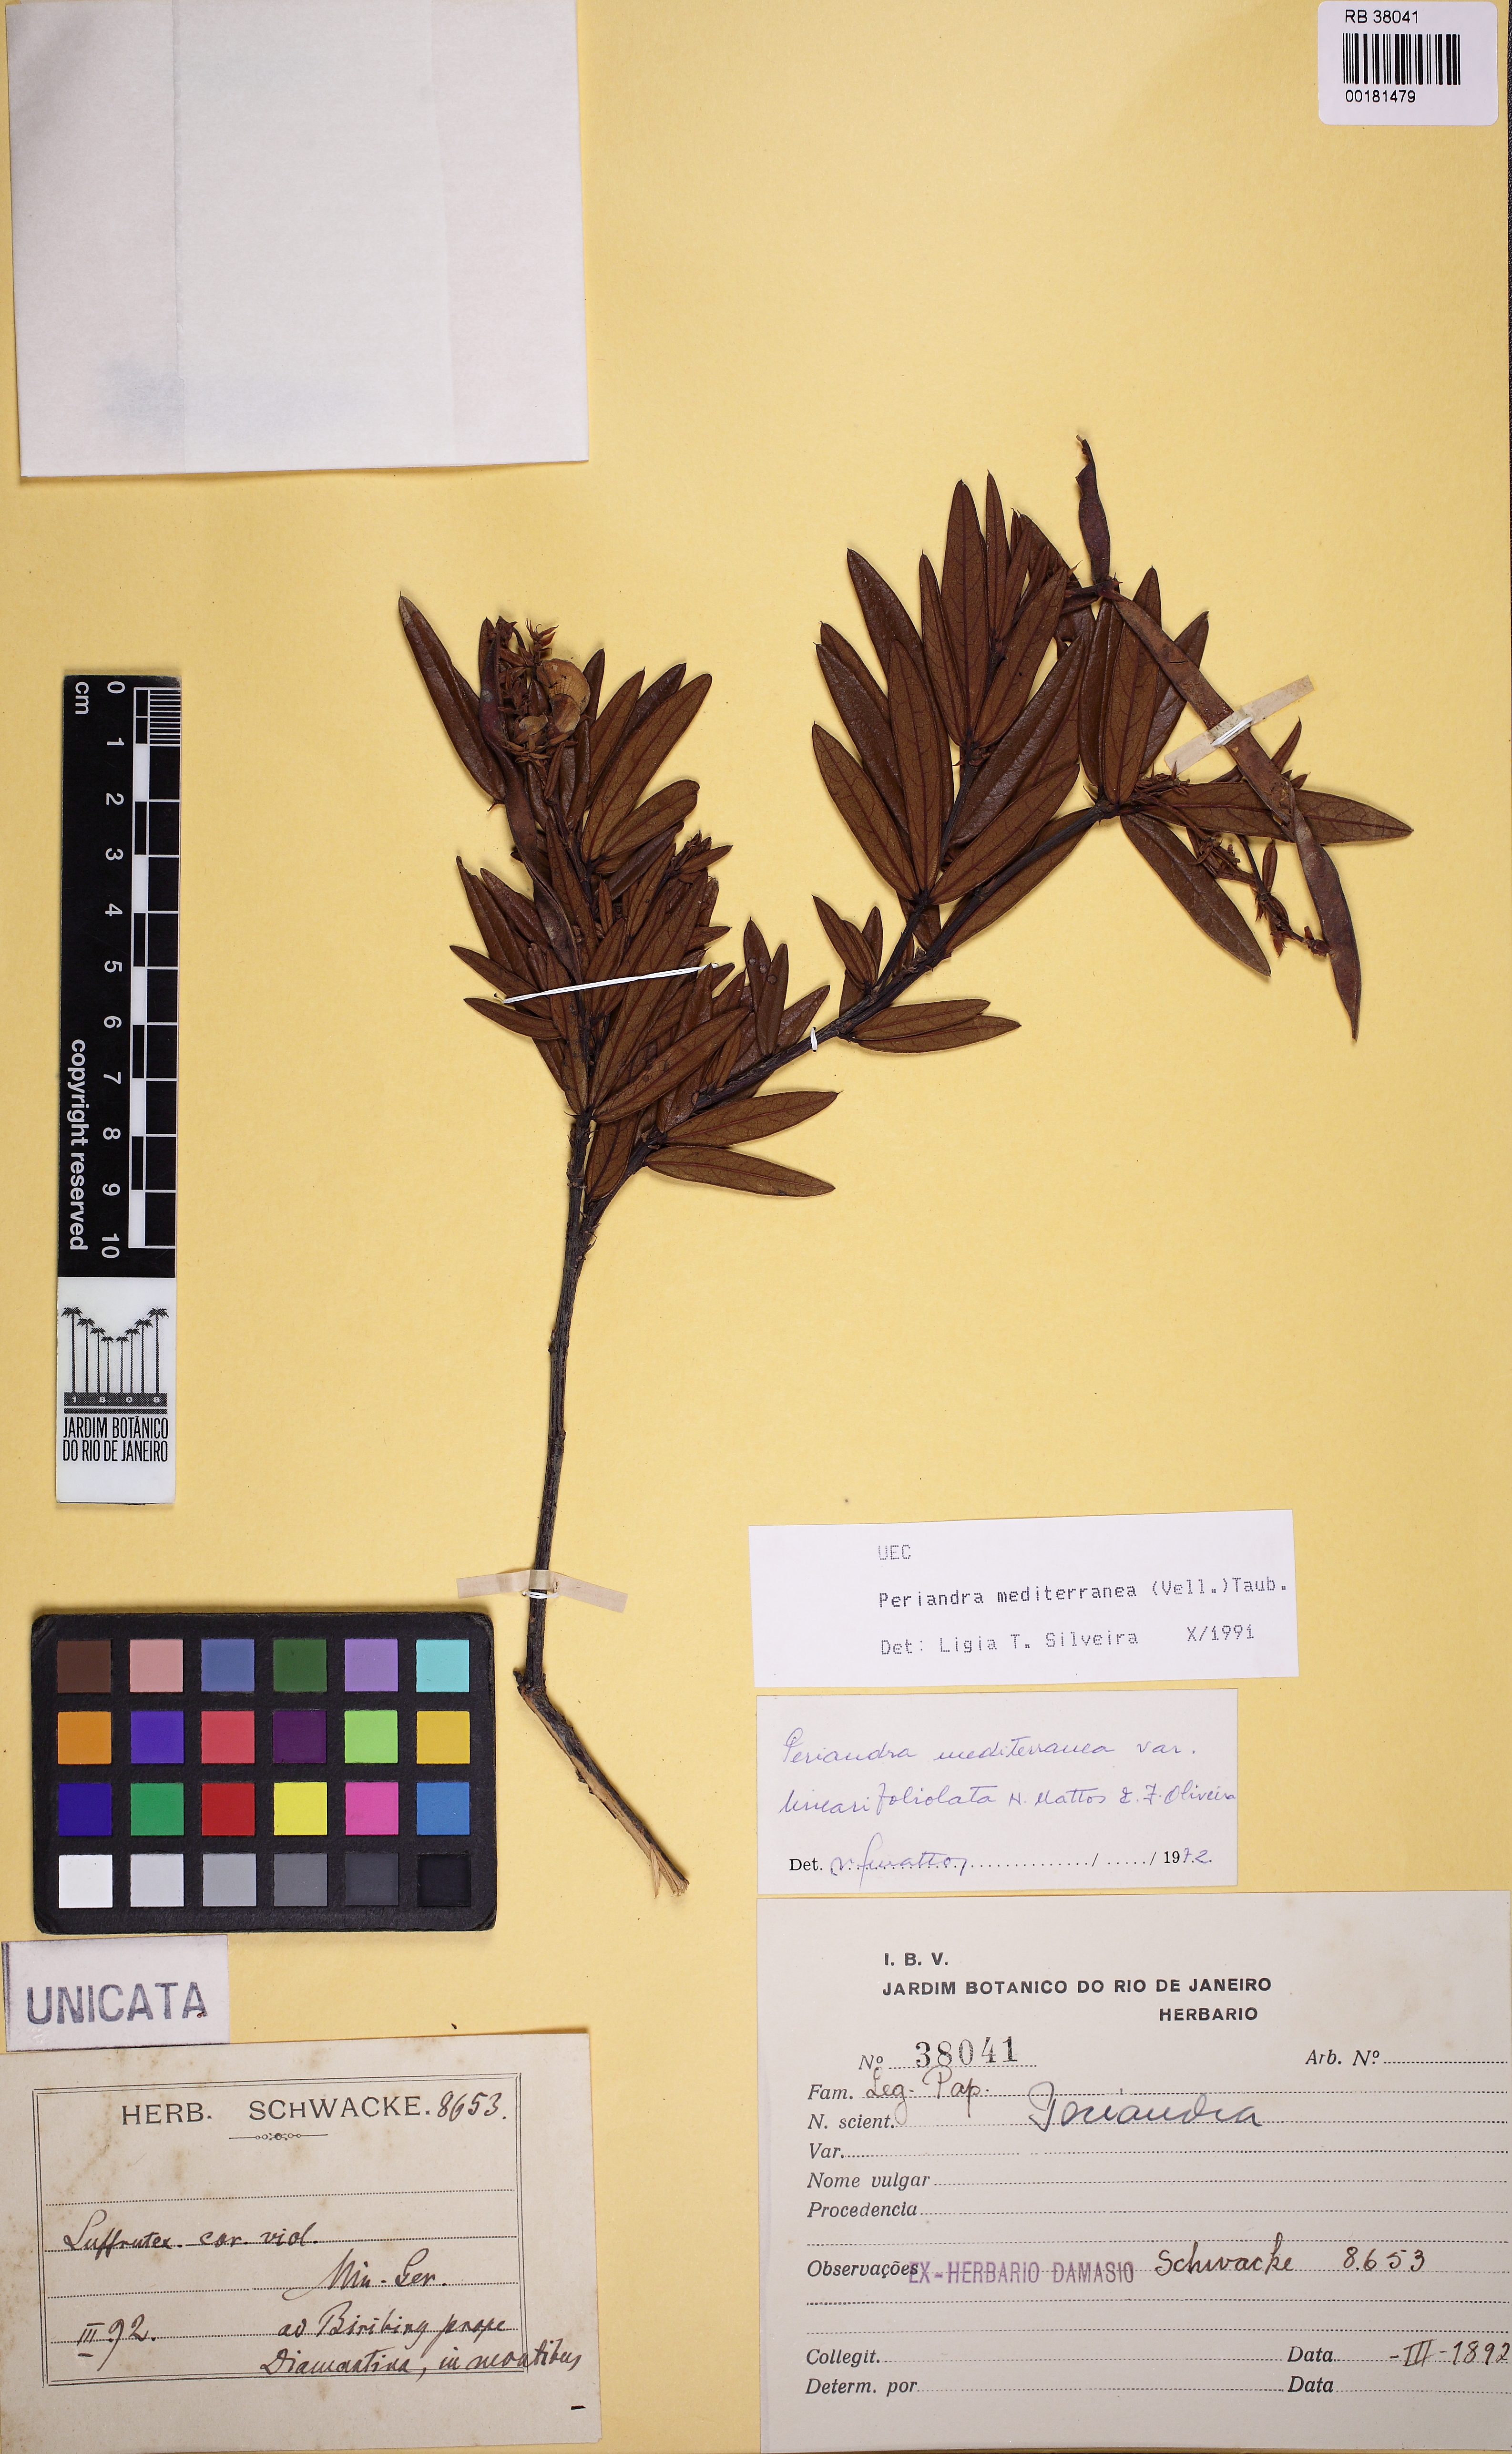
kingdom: Plantae
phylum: Tracheophyta
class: Magnoliopsida
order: Fabales
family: Fabaceae
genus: Periandra
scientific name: Periandra mediterranea
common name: Brazilian licorice
